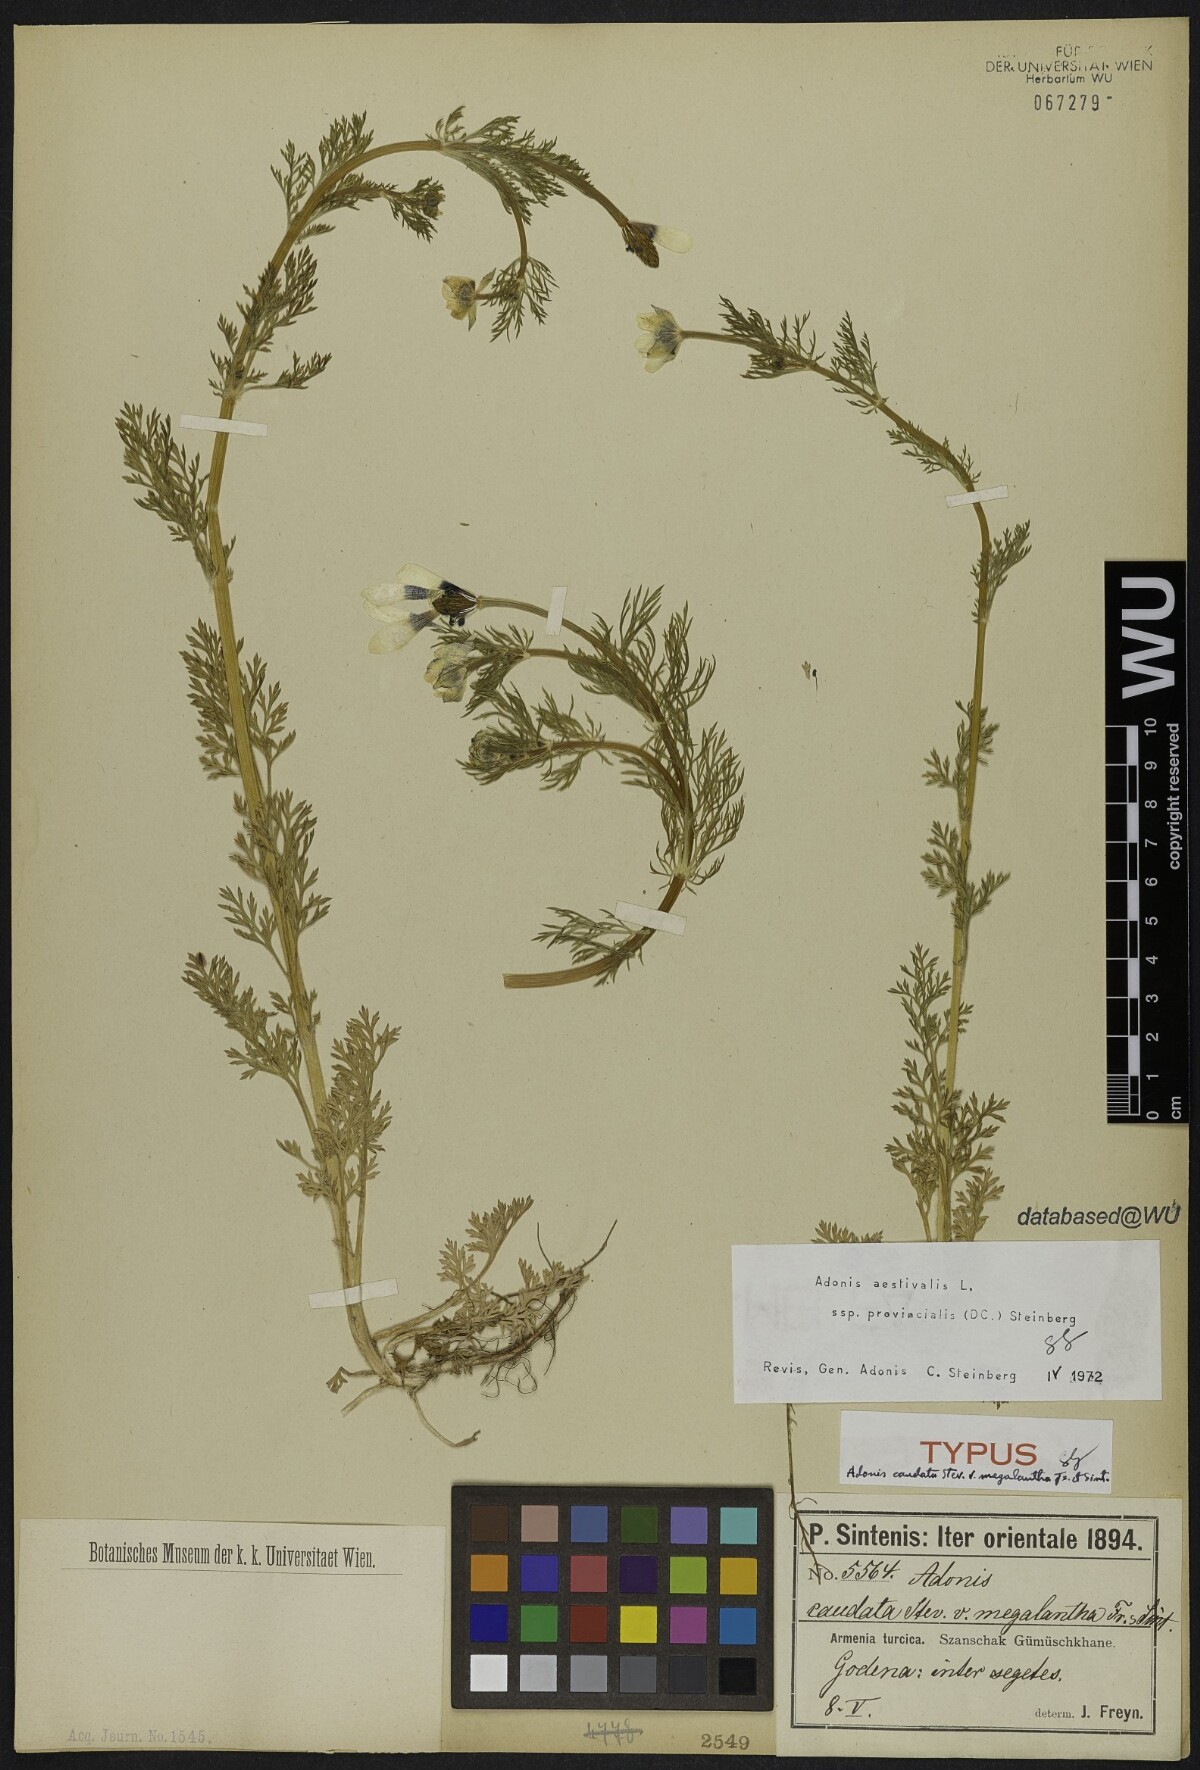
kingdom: Plantae
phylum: Tracheophyta
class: Magnoliopsida
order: Ranunculales
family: Ranunculaceae
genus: Adonis
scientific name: Adonis flammea
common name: Large pheasant's-eye
